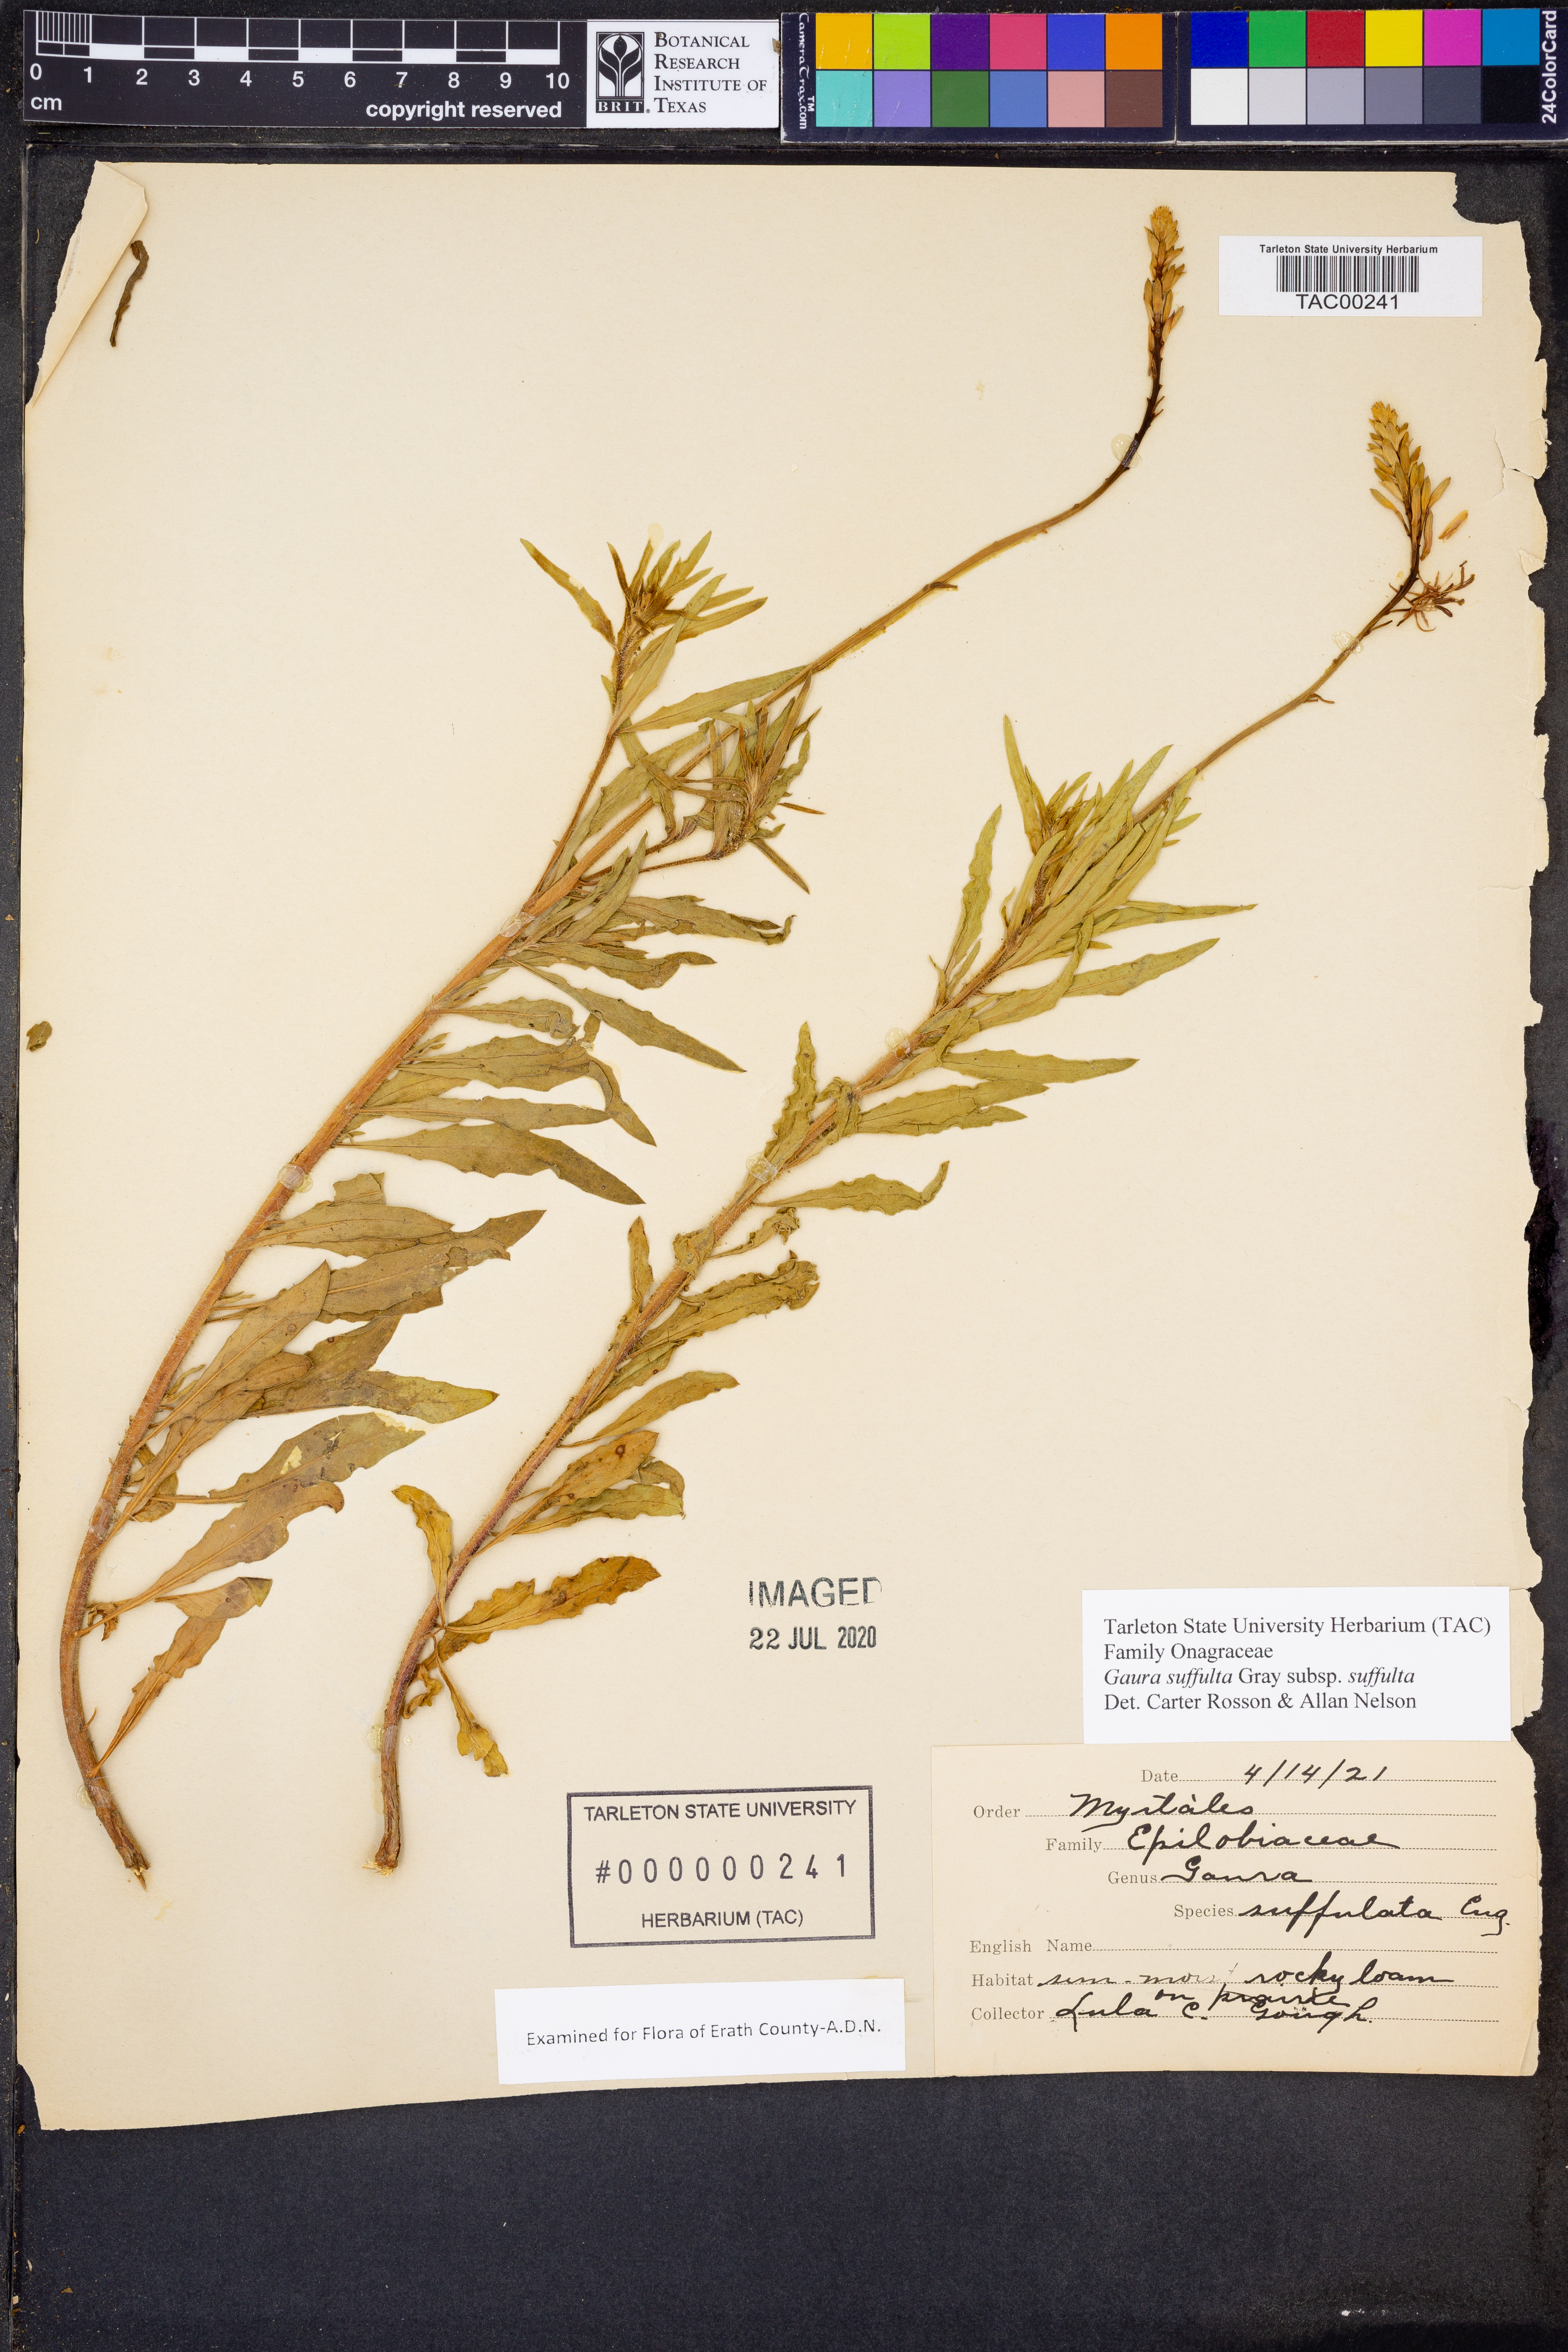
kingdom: Plantae
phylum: Tracheophyta
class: Magnoliopsida
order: Myrtales
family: Onagraceae
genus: Oenothera
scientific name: Oenothera suffulta
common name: Kisses
